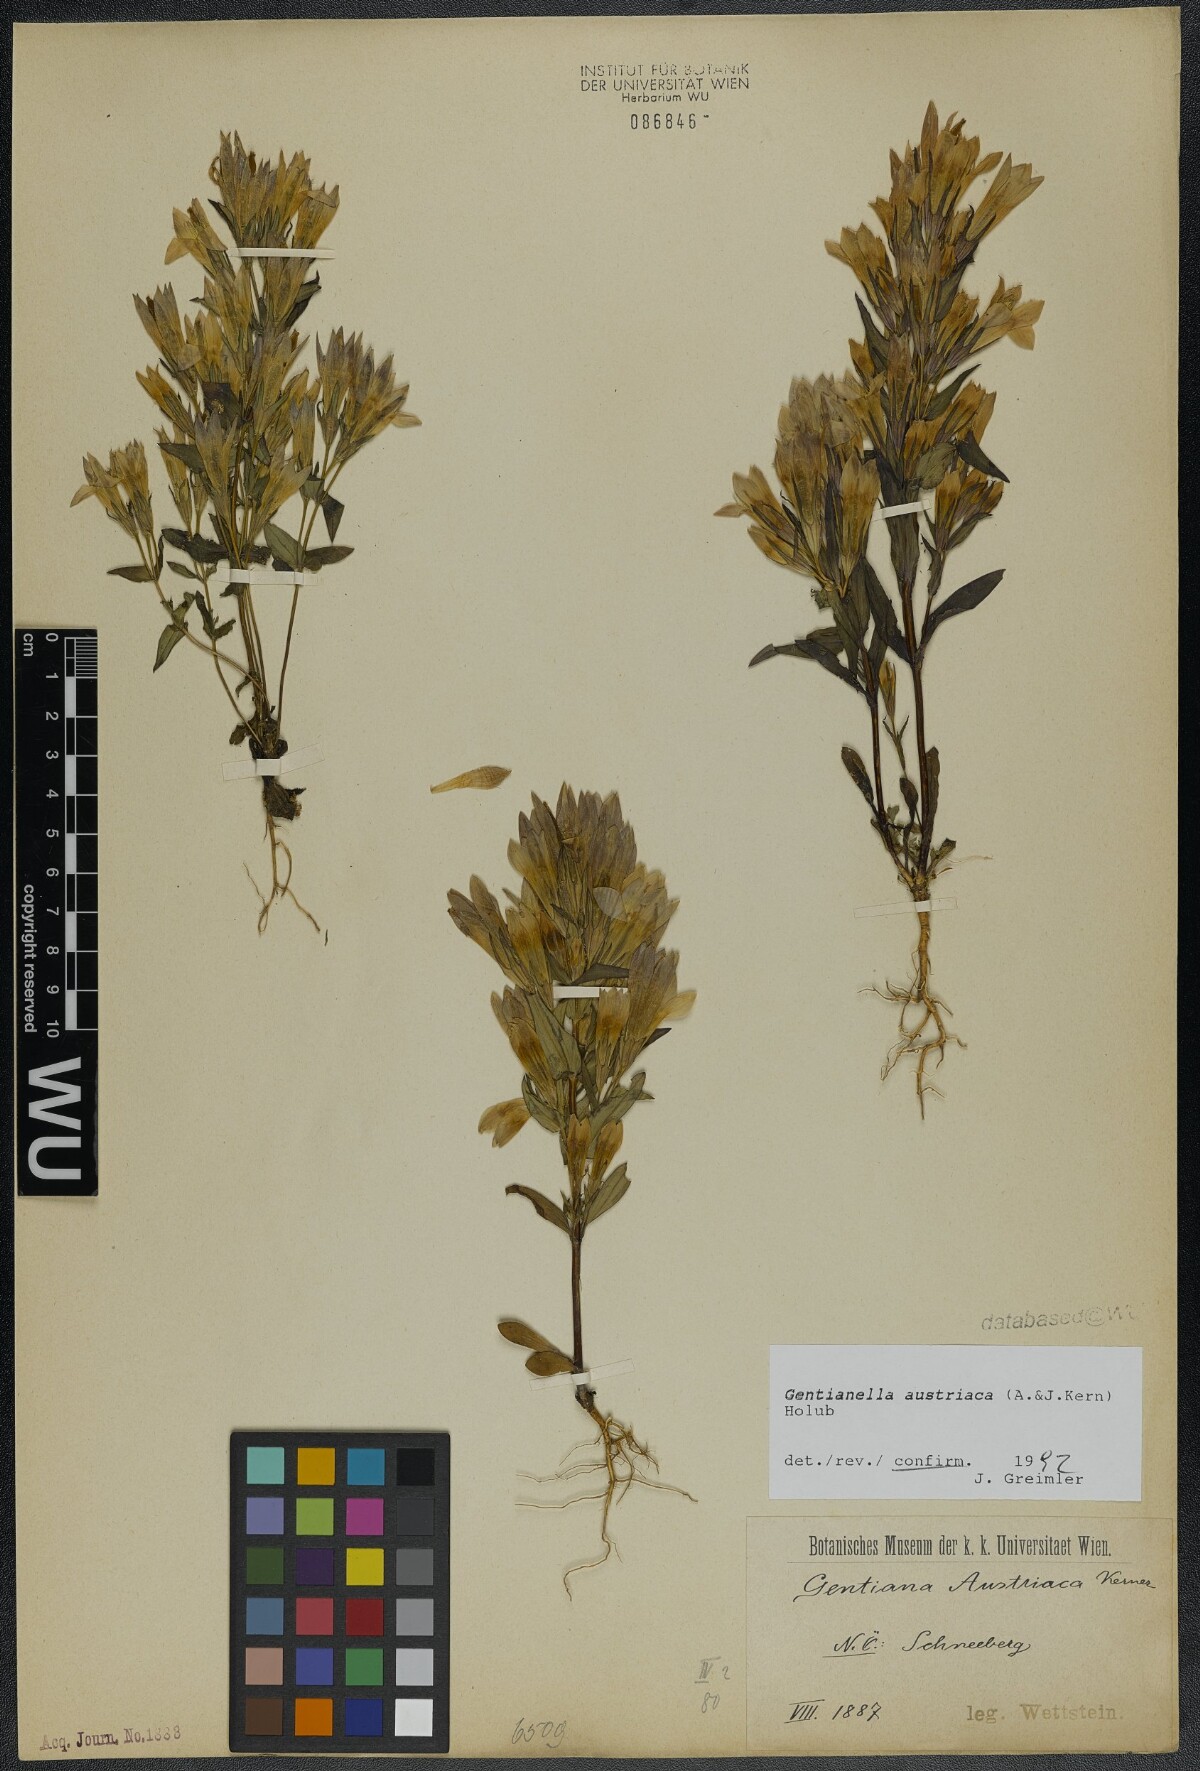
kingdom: Plantae
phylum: Tracheophyta
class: Magnoliopsida
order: Gentianales
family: Gentianaceae
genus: Gentianella
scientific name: Gentianella austriaca
